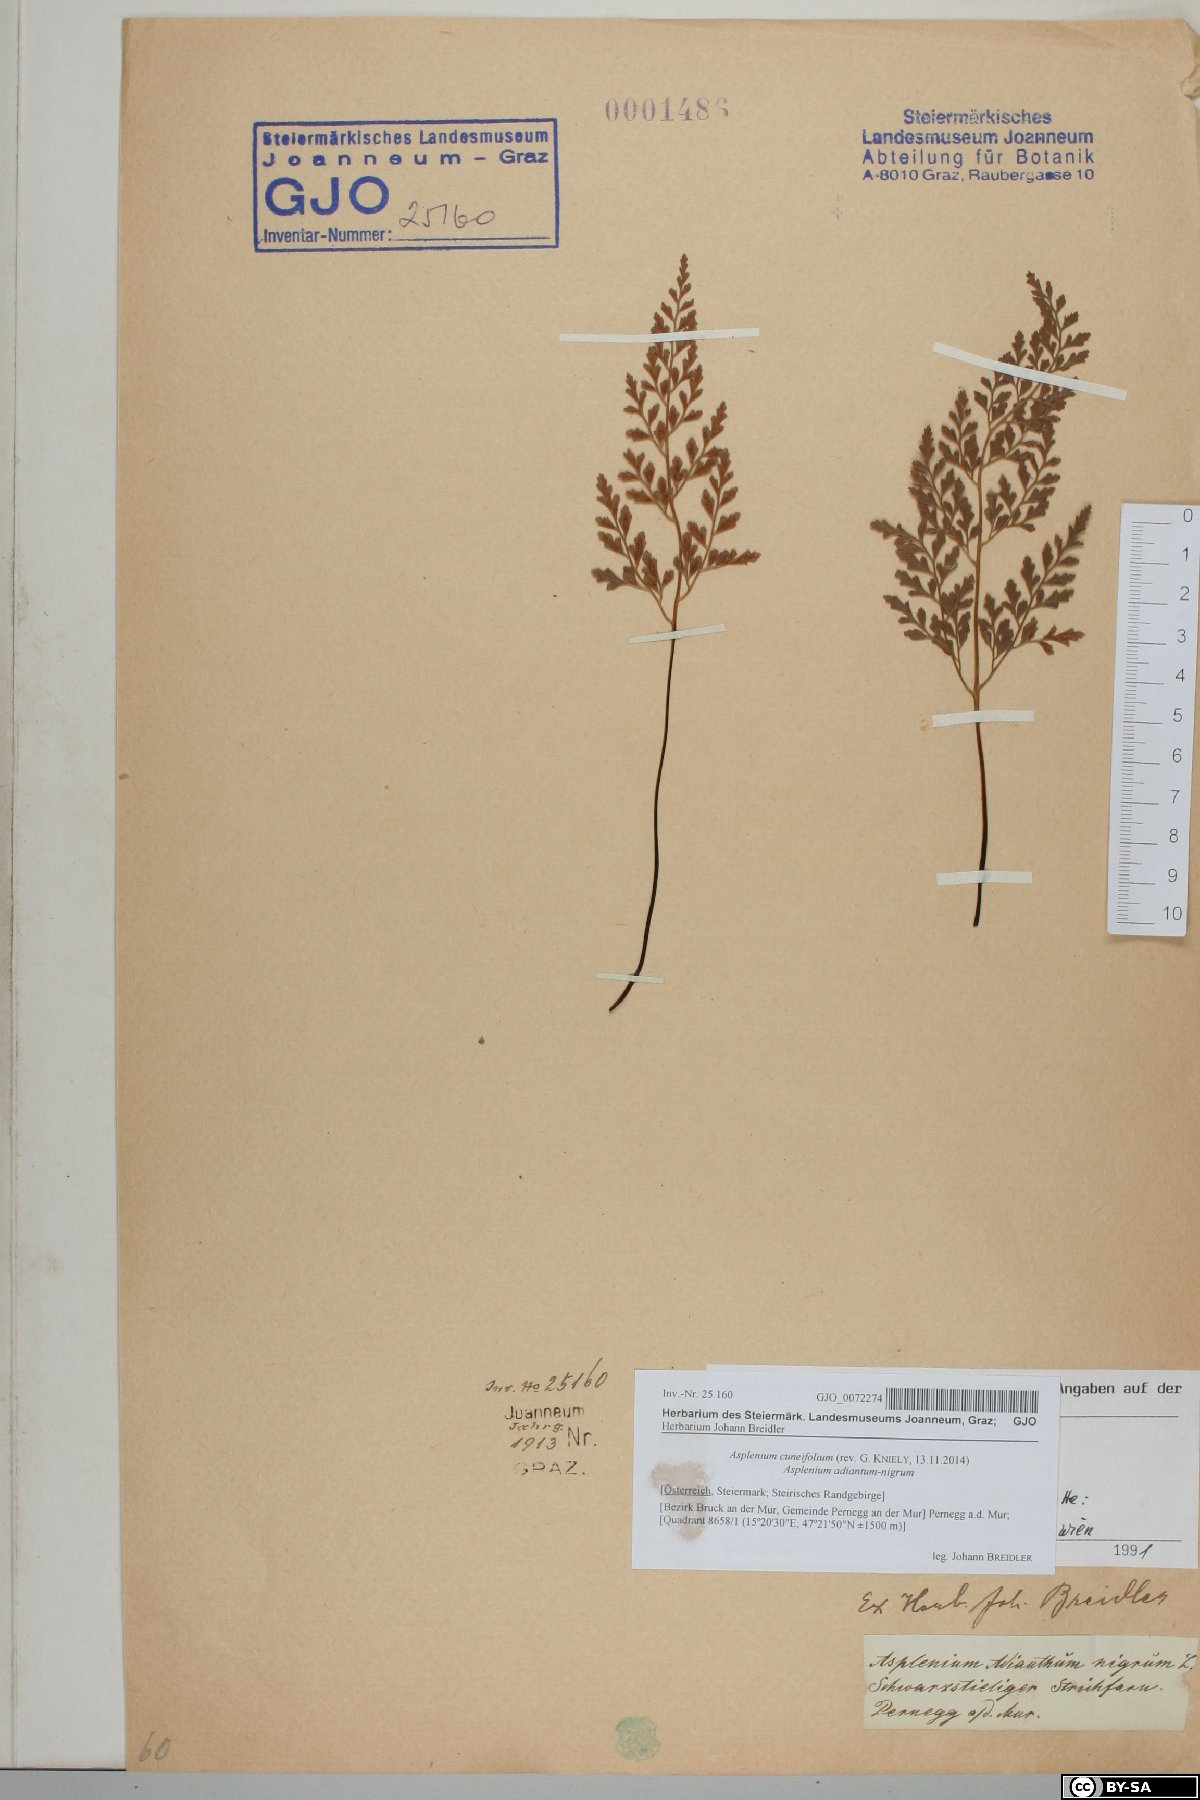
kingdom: Plantae
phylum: Tracheophyta
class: Polypodiopsida
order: Polypodiales
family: Aspleniaceae
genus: Asplenium
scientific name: Asplenium cuneifolium
